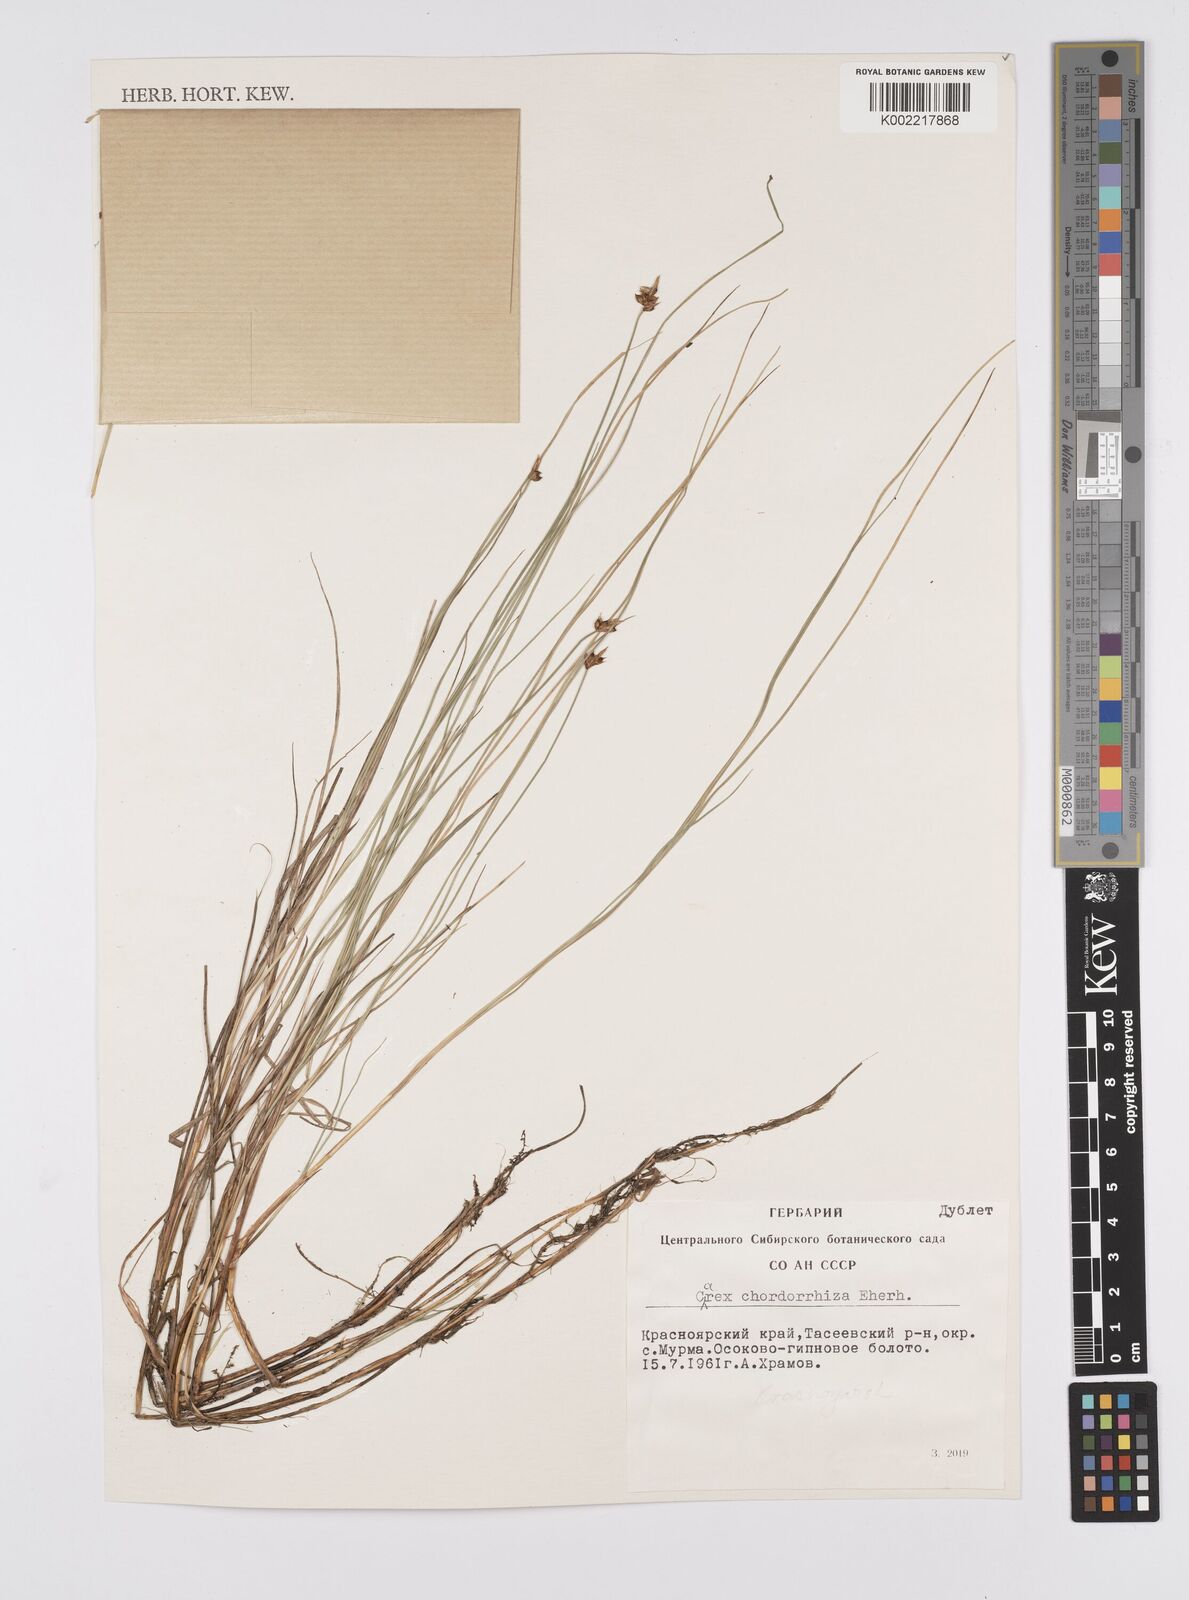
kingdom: Plantae
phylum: Tracheophyta
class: Liliopsida
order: Poales
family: Cyperaceae
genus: Carex
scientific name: Carex
